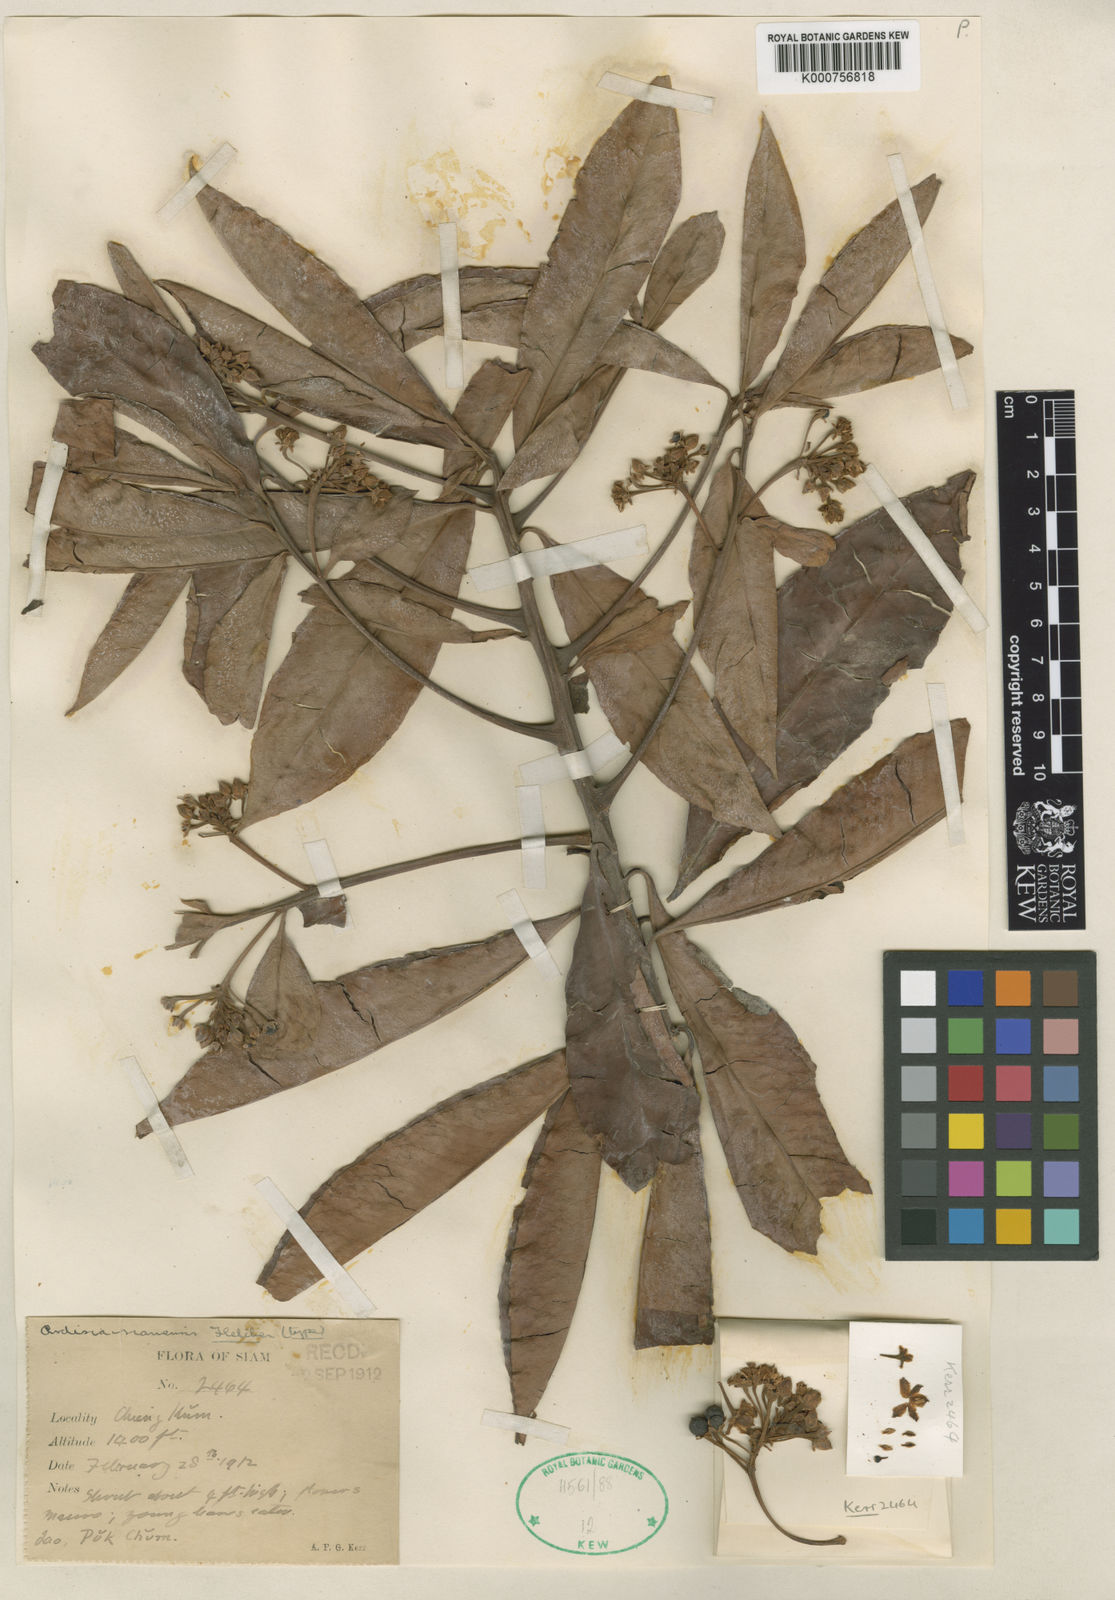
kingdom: Plantae
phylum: Tracheophyta
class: Magnoliopsida
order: Ericales
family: Primulaceae
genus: Ardisia
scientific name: Ardisia amherstiana
